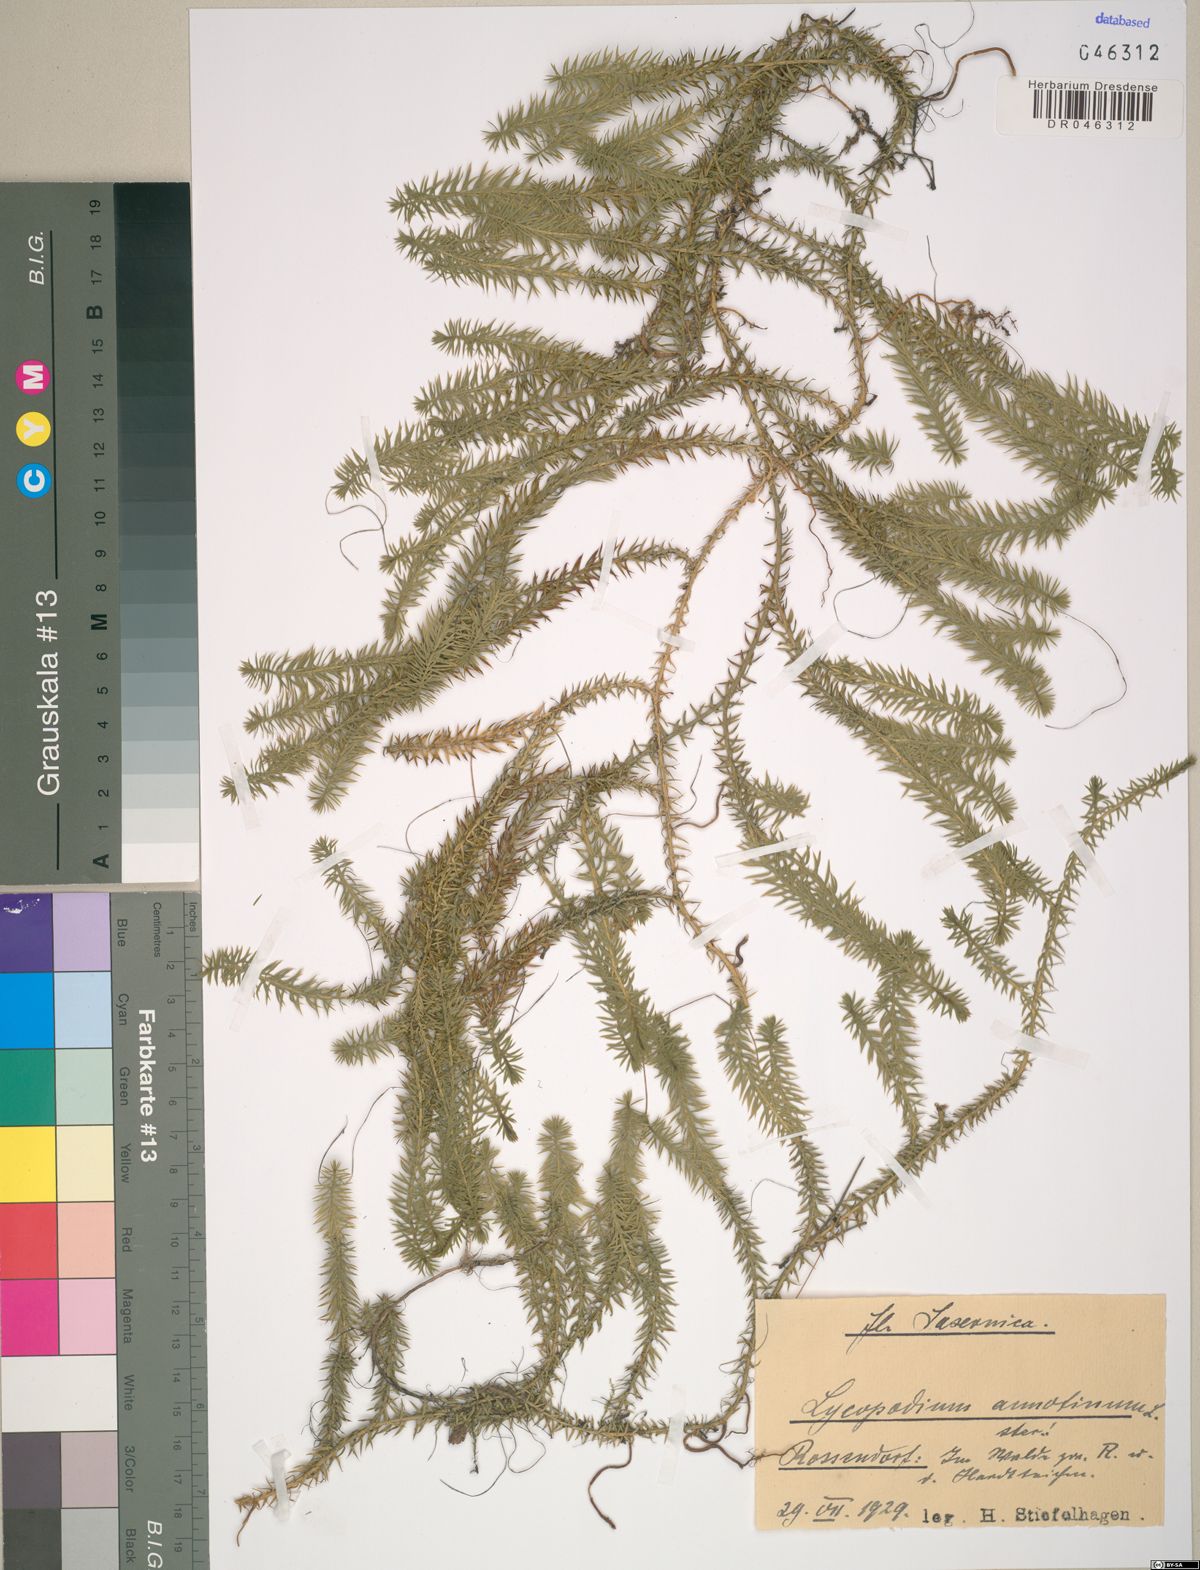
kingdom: Plantae
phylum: Tracheophyta
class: Lycopodiopsida
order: Lycopodiales
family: Lycopodiaceae
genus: Spinulum
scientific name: Spinulum annotinum
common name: Interrupted club-moss
